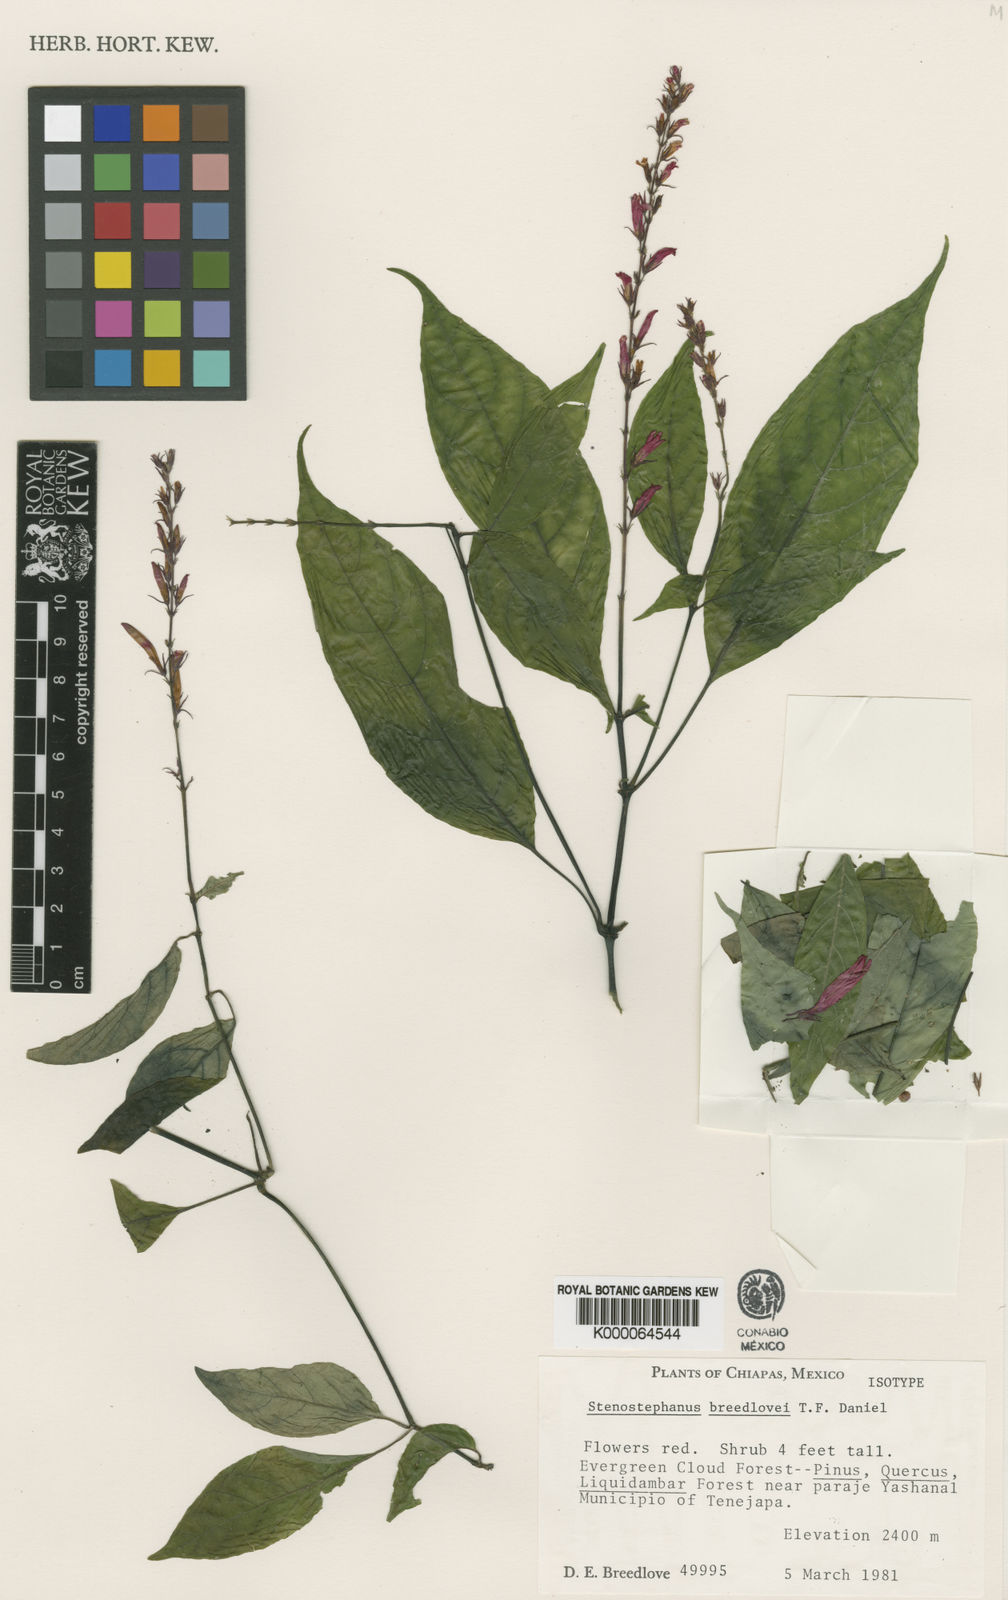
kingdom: Plantae
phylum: Tracheophyta
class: Magnoliopsida
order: Lamiales
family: Acanthaceae
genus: Stenostephanus
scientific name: Stenostephanus breedlovei
